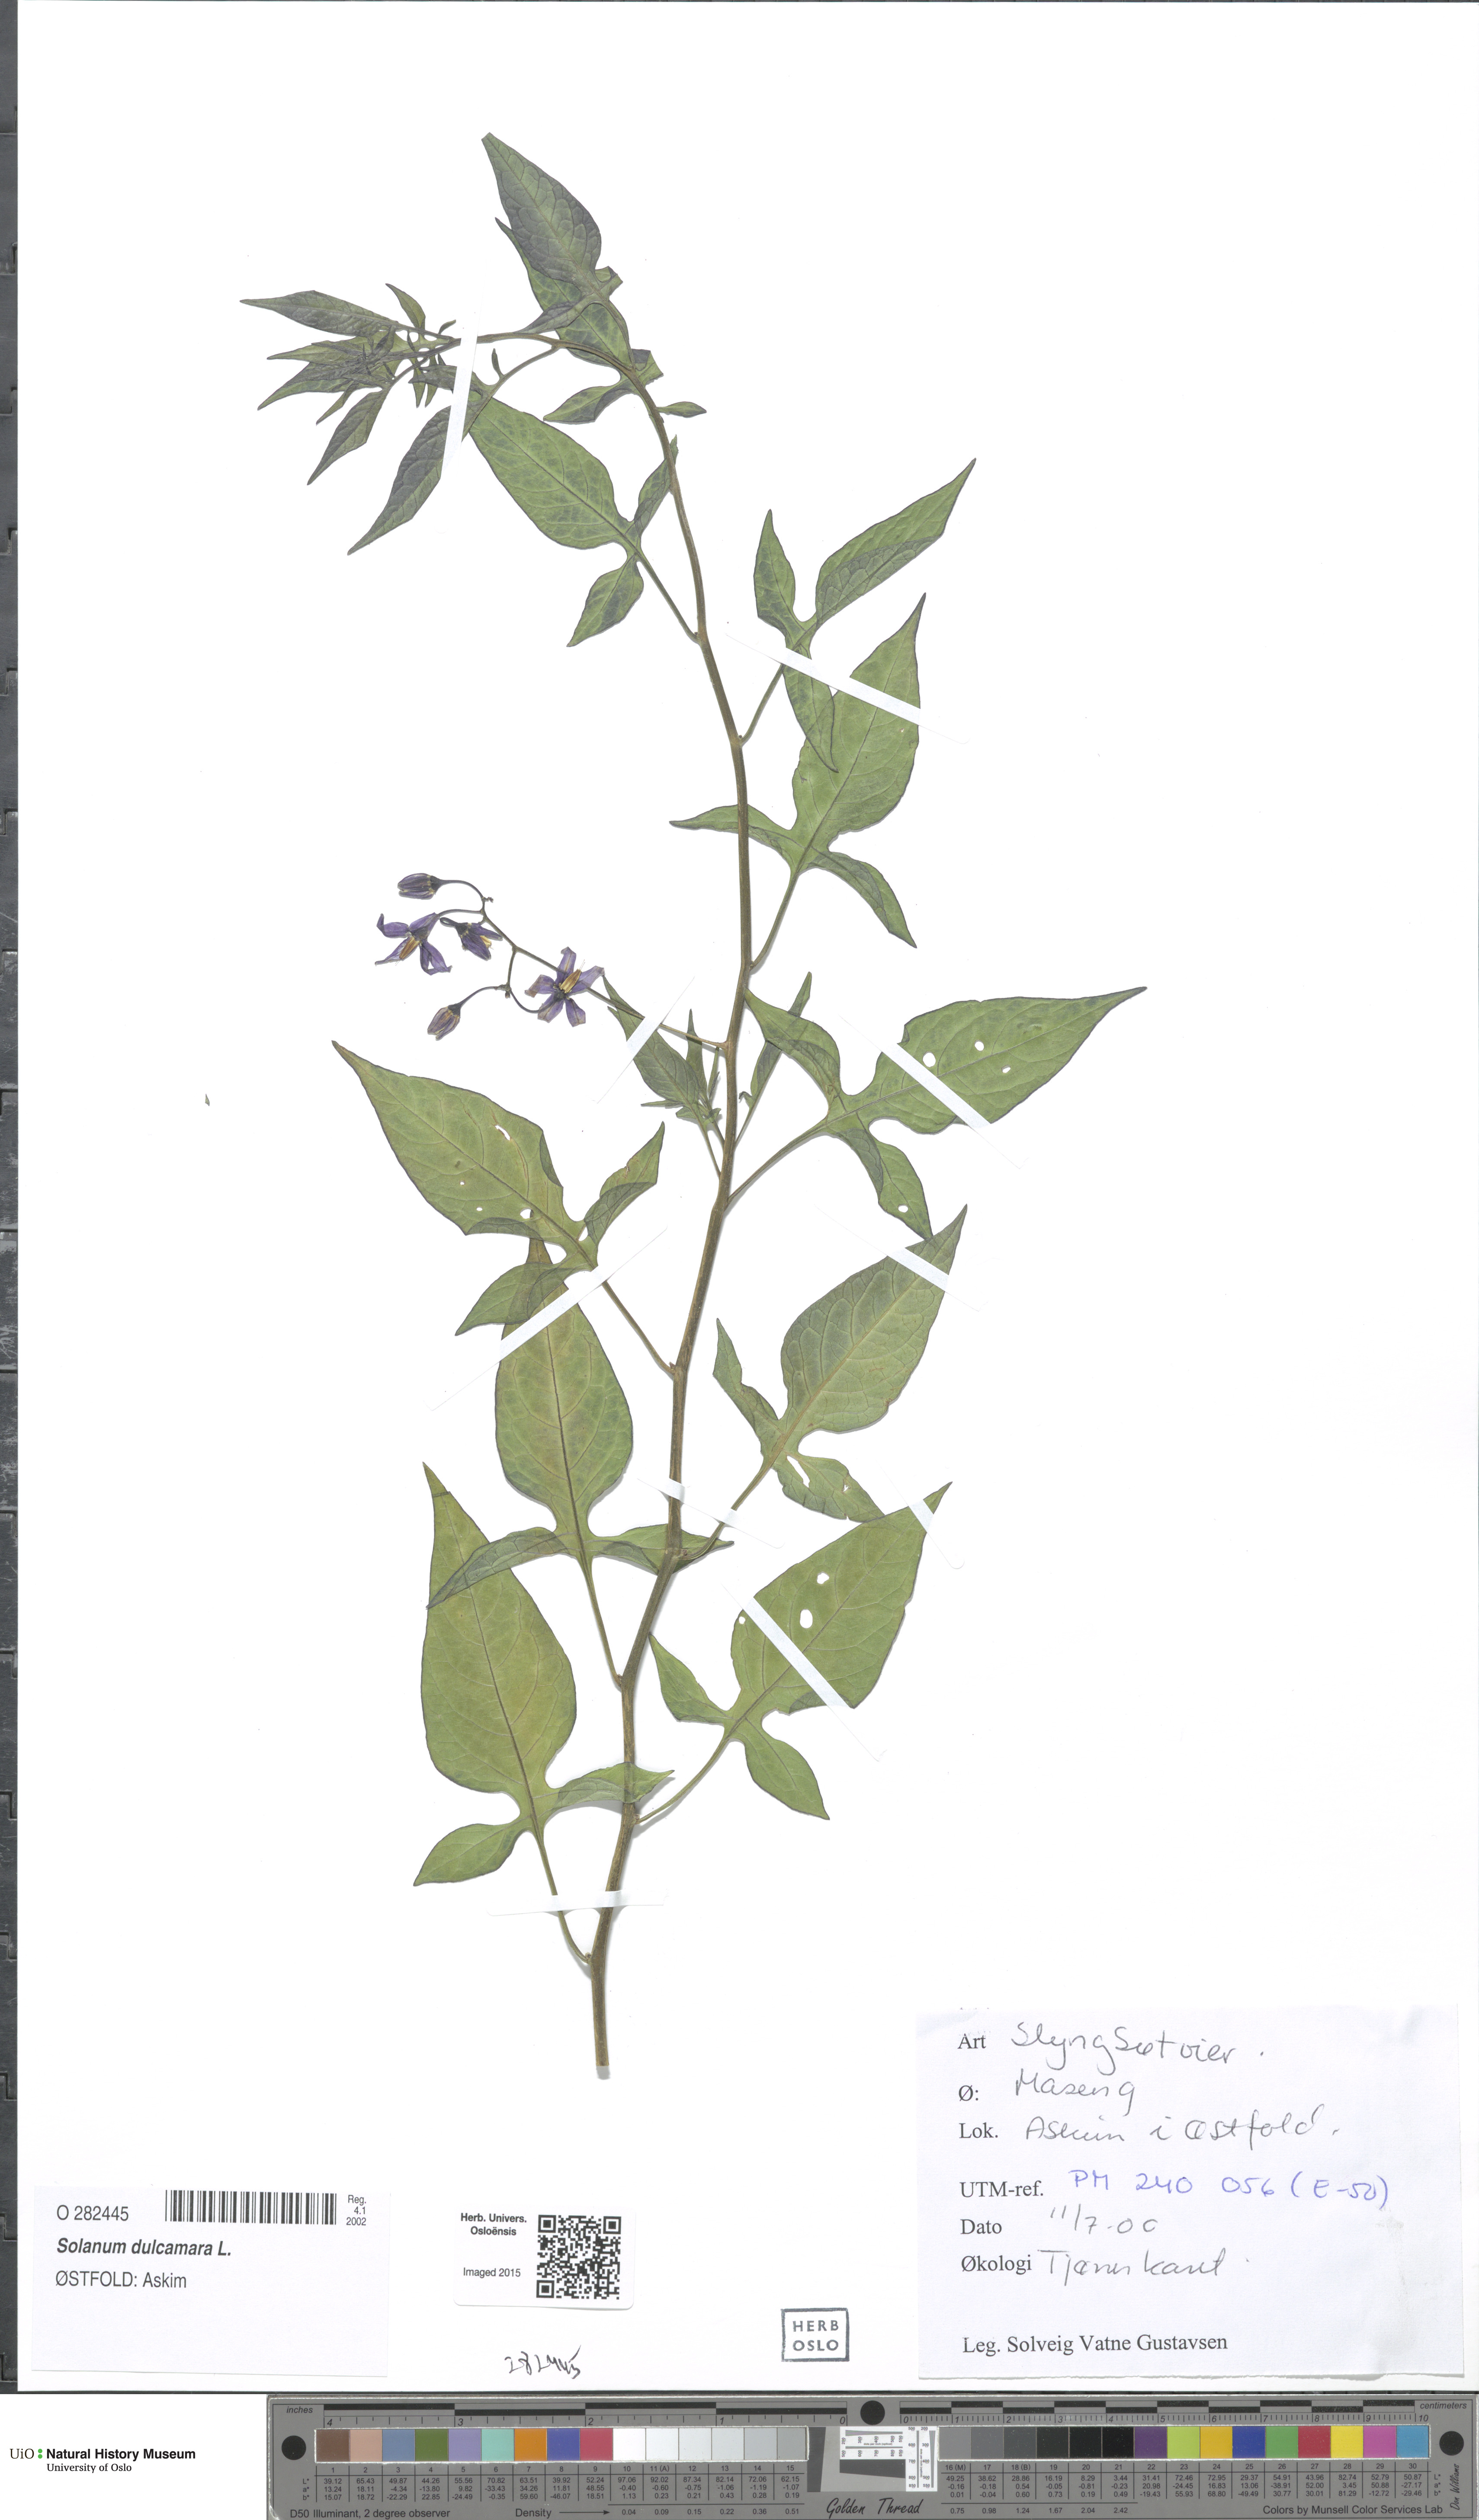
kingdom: Plantae
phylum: Tracheophyta
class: Magnoliopsida
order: Solanales
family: Solanaceae
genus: Solanum
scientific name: Solanum dulcamara
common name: Climbing nightshade
